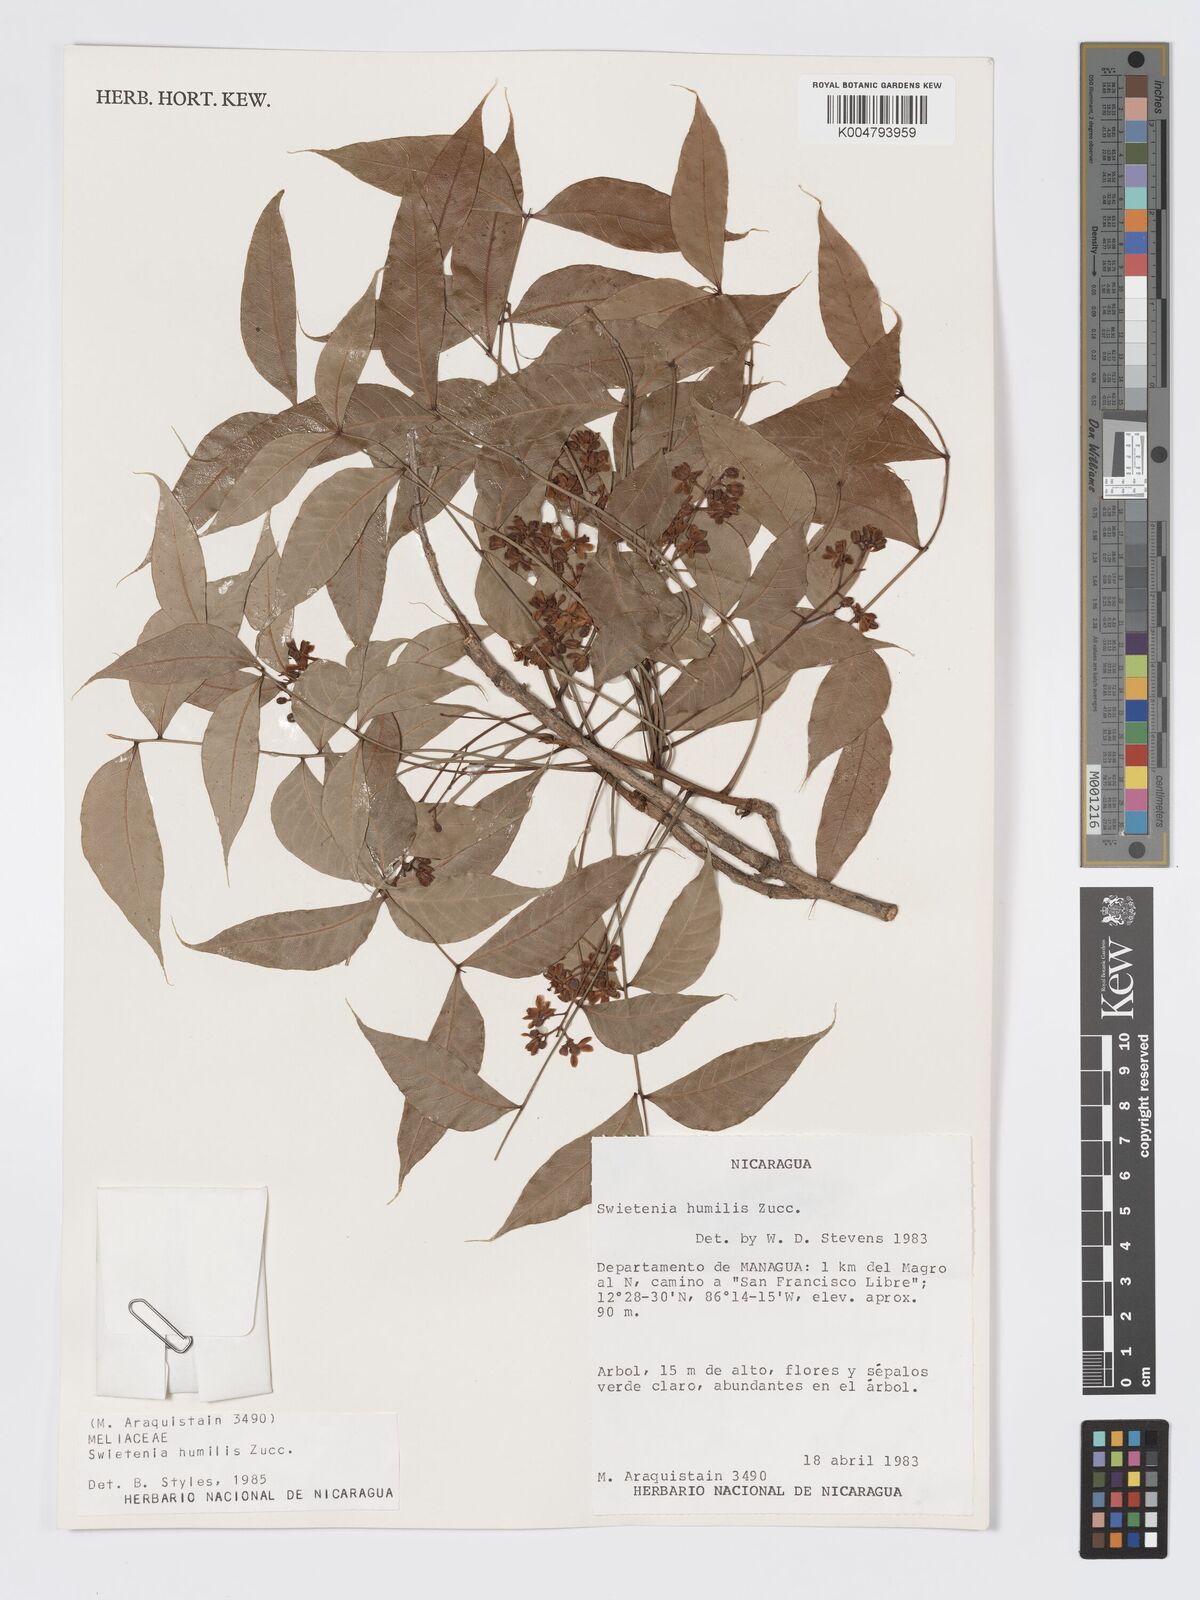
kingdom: Plantae
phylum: Tracheophyta
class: Magnoliopsida
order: Sapindales
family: Meliaceae
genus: Swietenia
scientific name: Swietenia humilis
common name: Pacific coast mahogany
